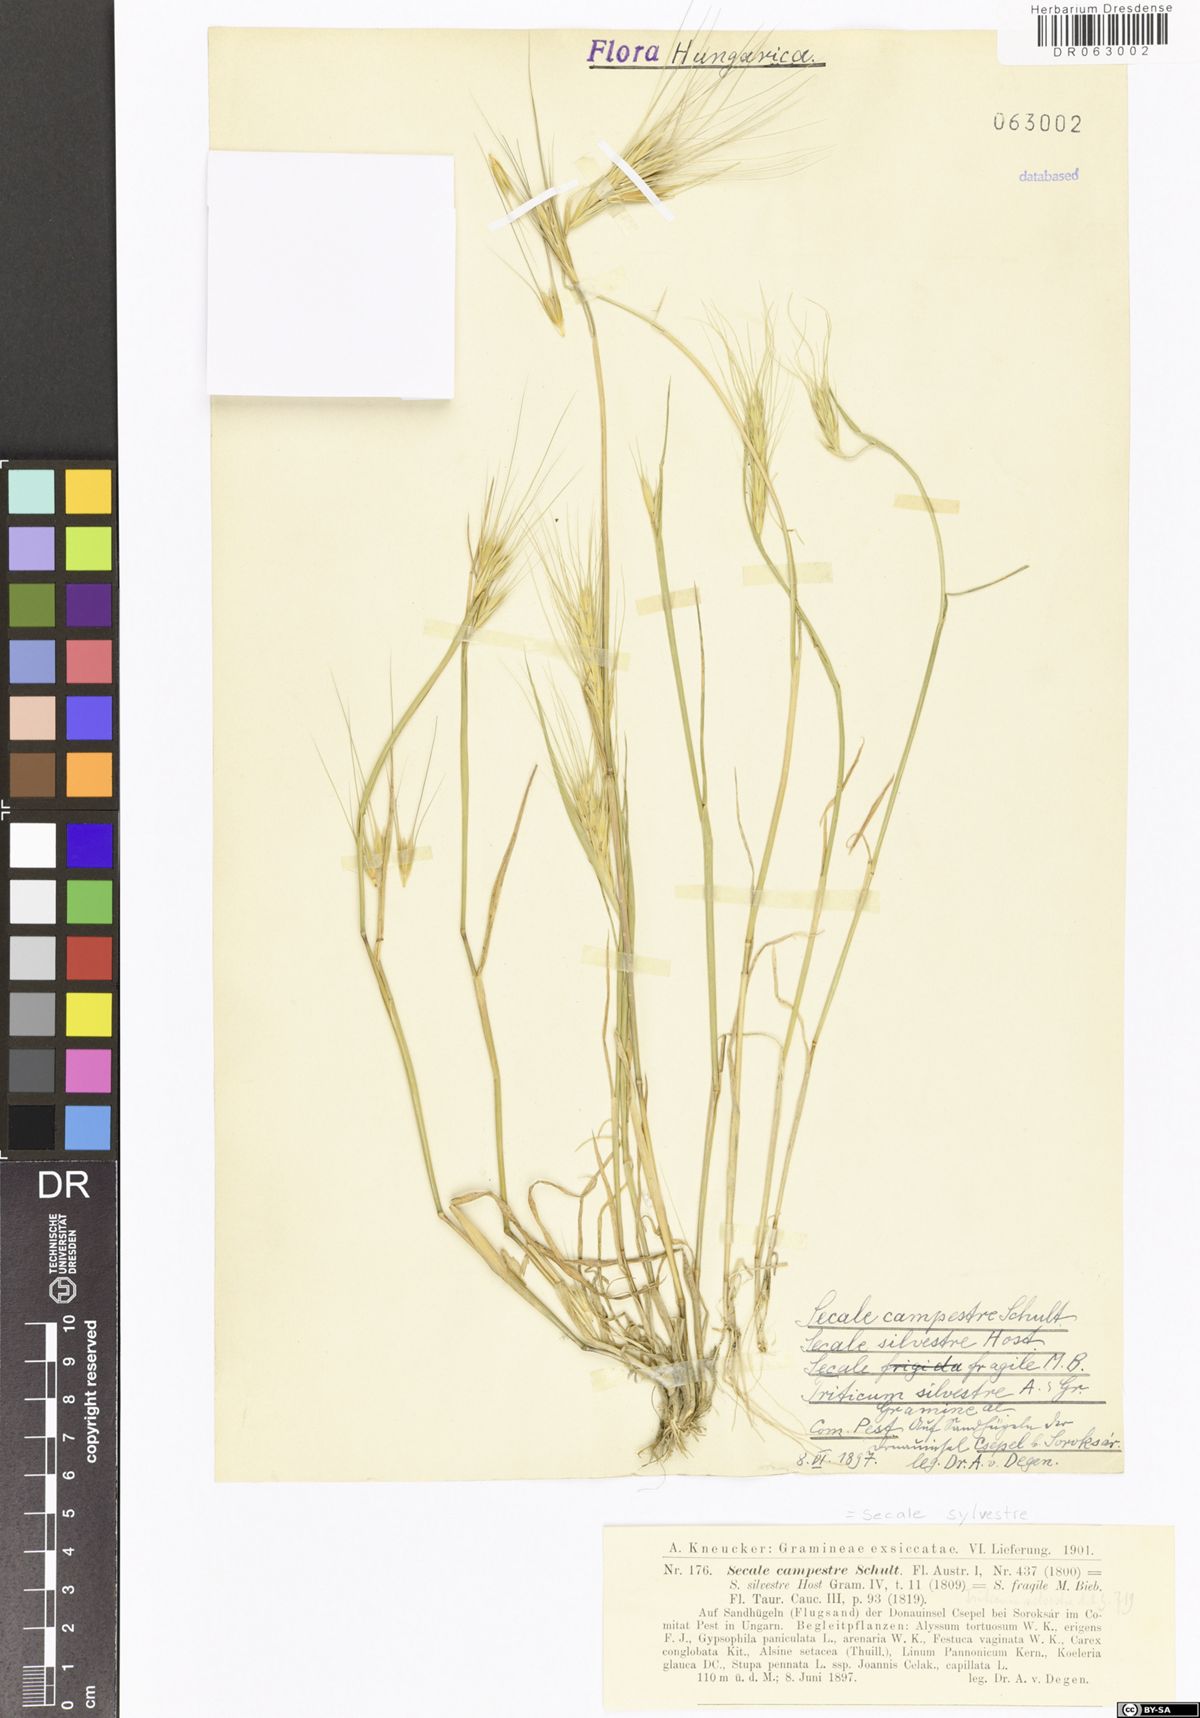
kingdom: Plantae
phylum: Tracheophyta
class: Liliopsida
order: Poales
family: Poaceae
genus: Secale
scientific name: Secale sylvestre
